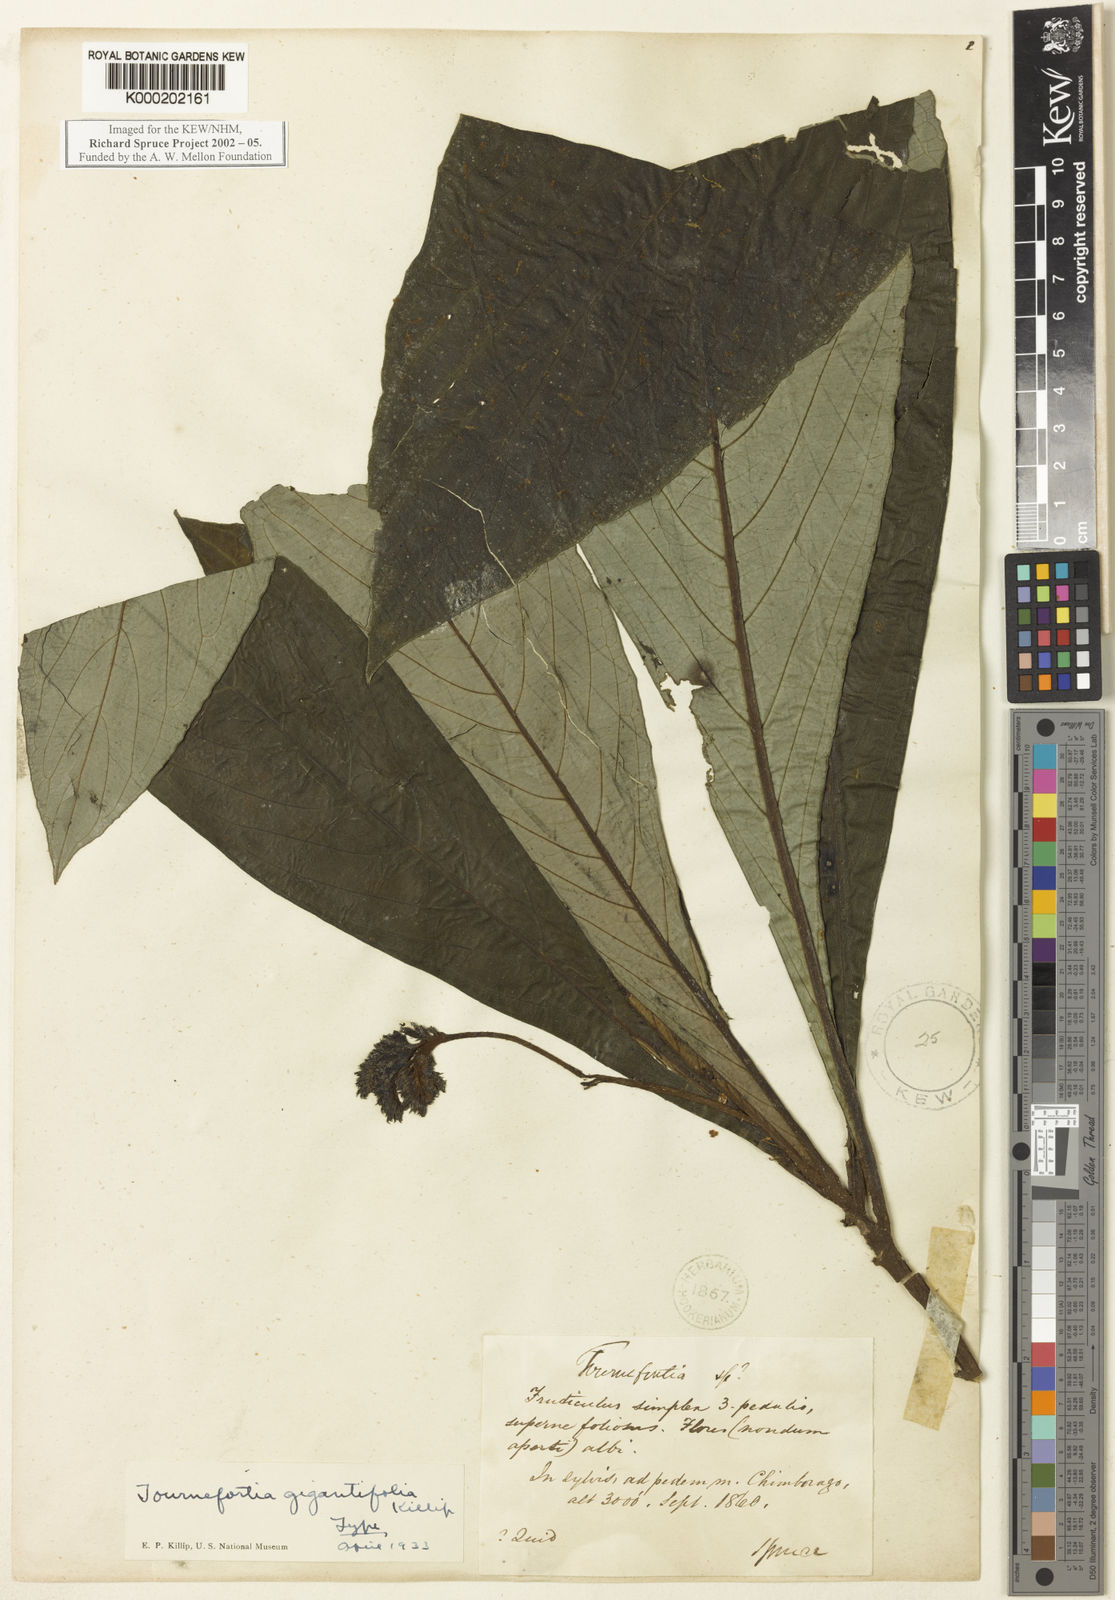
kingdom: Plantae
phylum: Tracheophyta
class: Magnoliopsida
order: Boraginales
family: Heliotropiaceae
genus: Heliotropium
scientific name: Heliotropium gigantifolium
